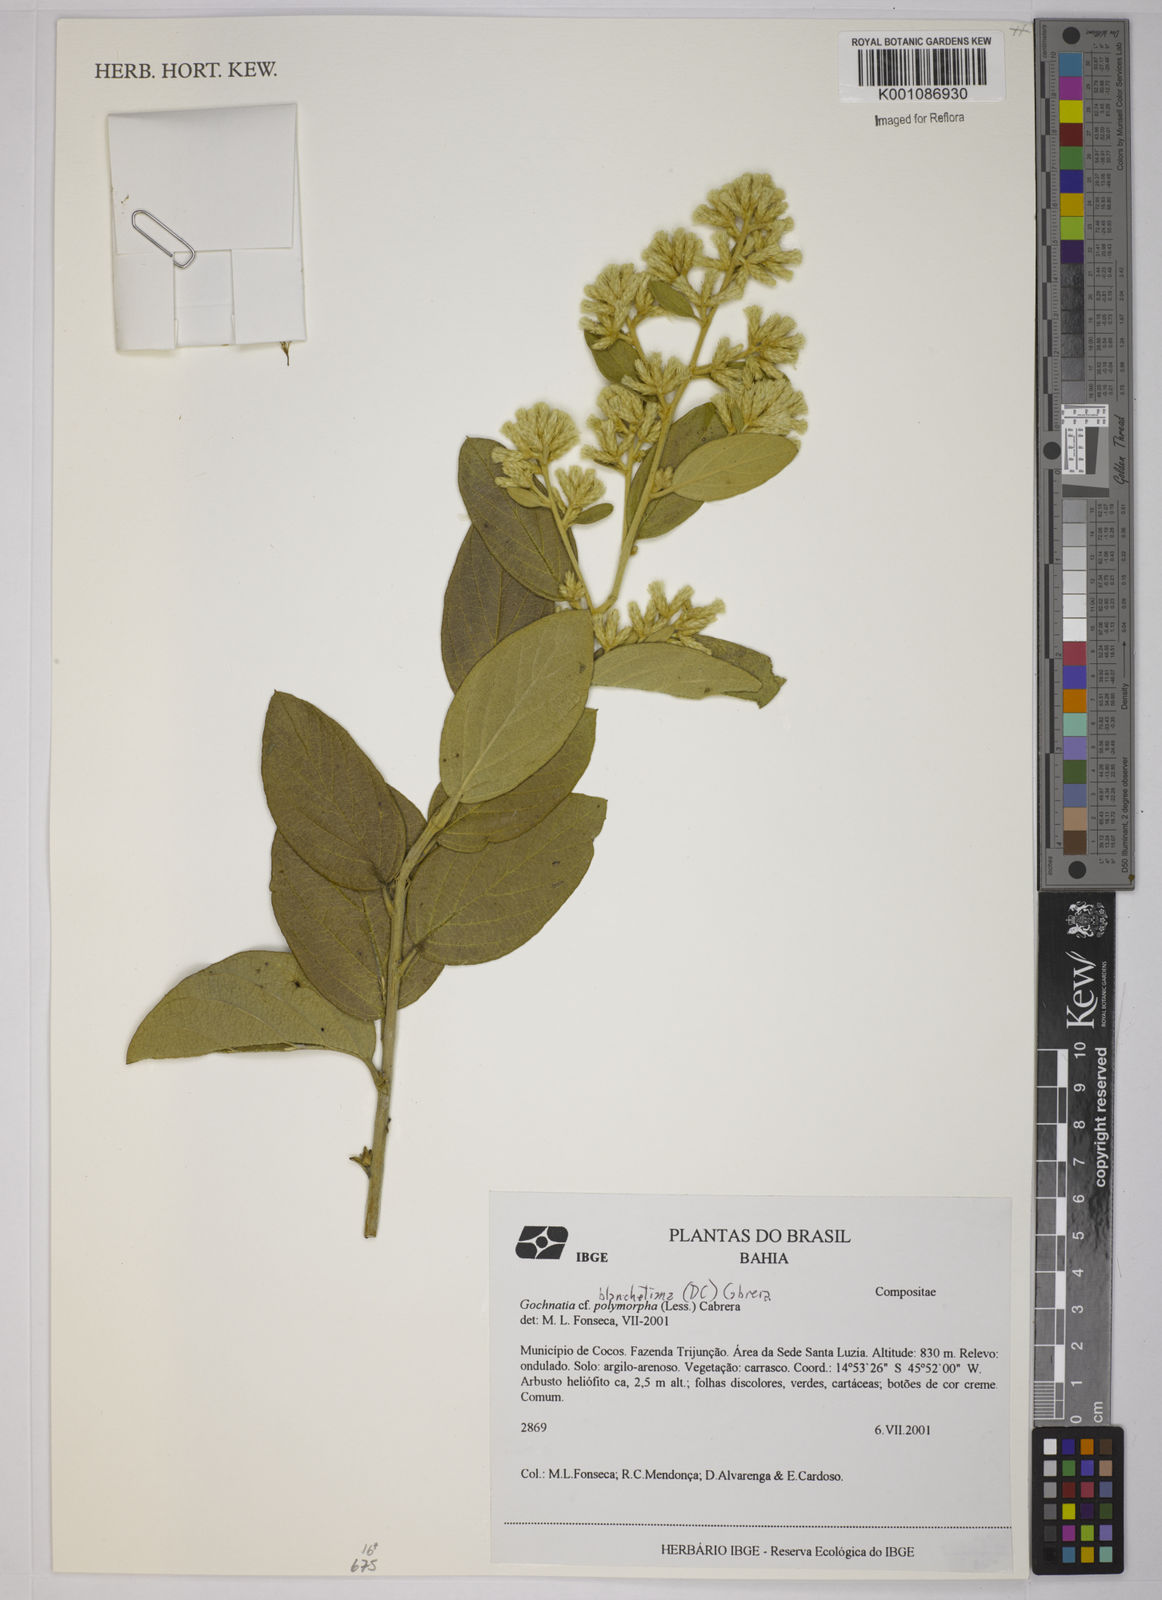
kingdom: Plantae
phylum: Tracheophyta
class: Magnoliopsida
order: Asterales
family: Asteraceae
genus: Moquiniastrum
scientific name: Moquiniastrum blanchetianum
